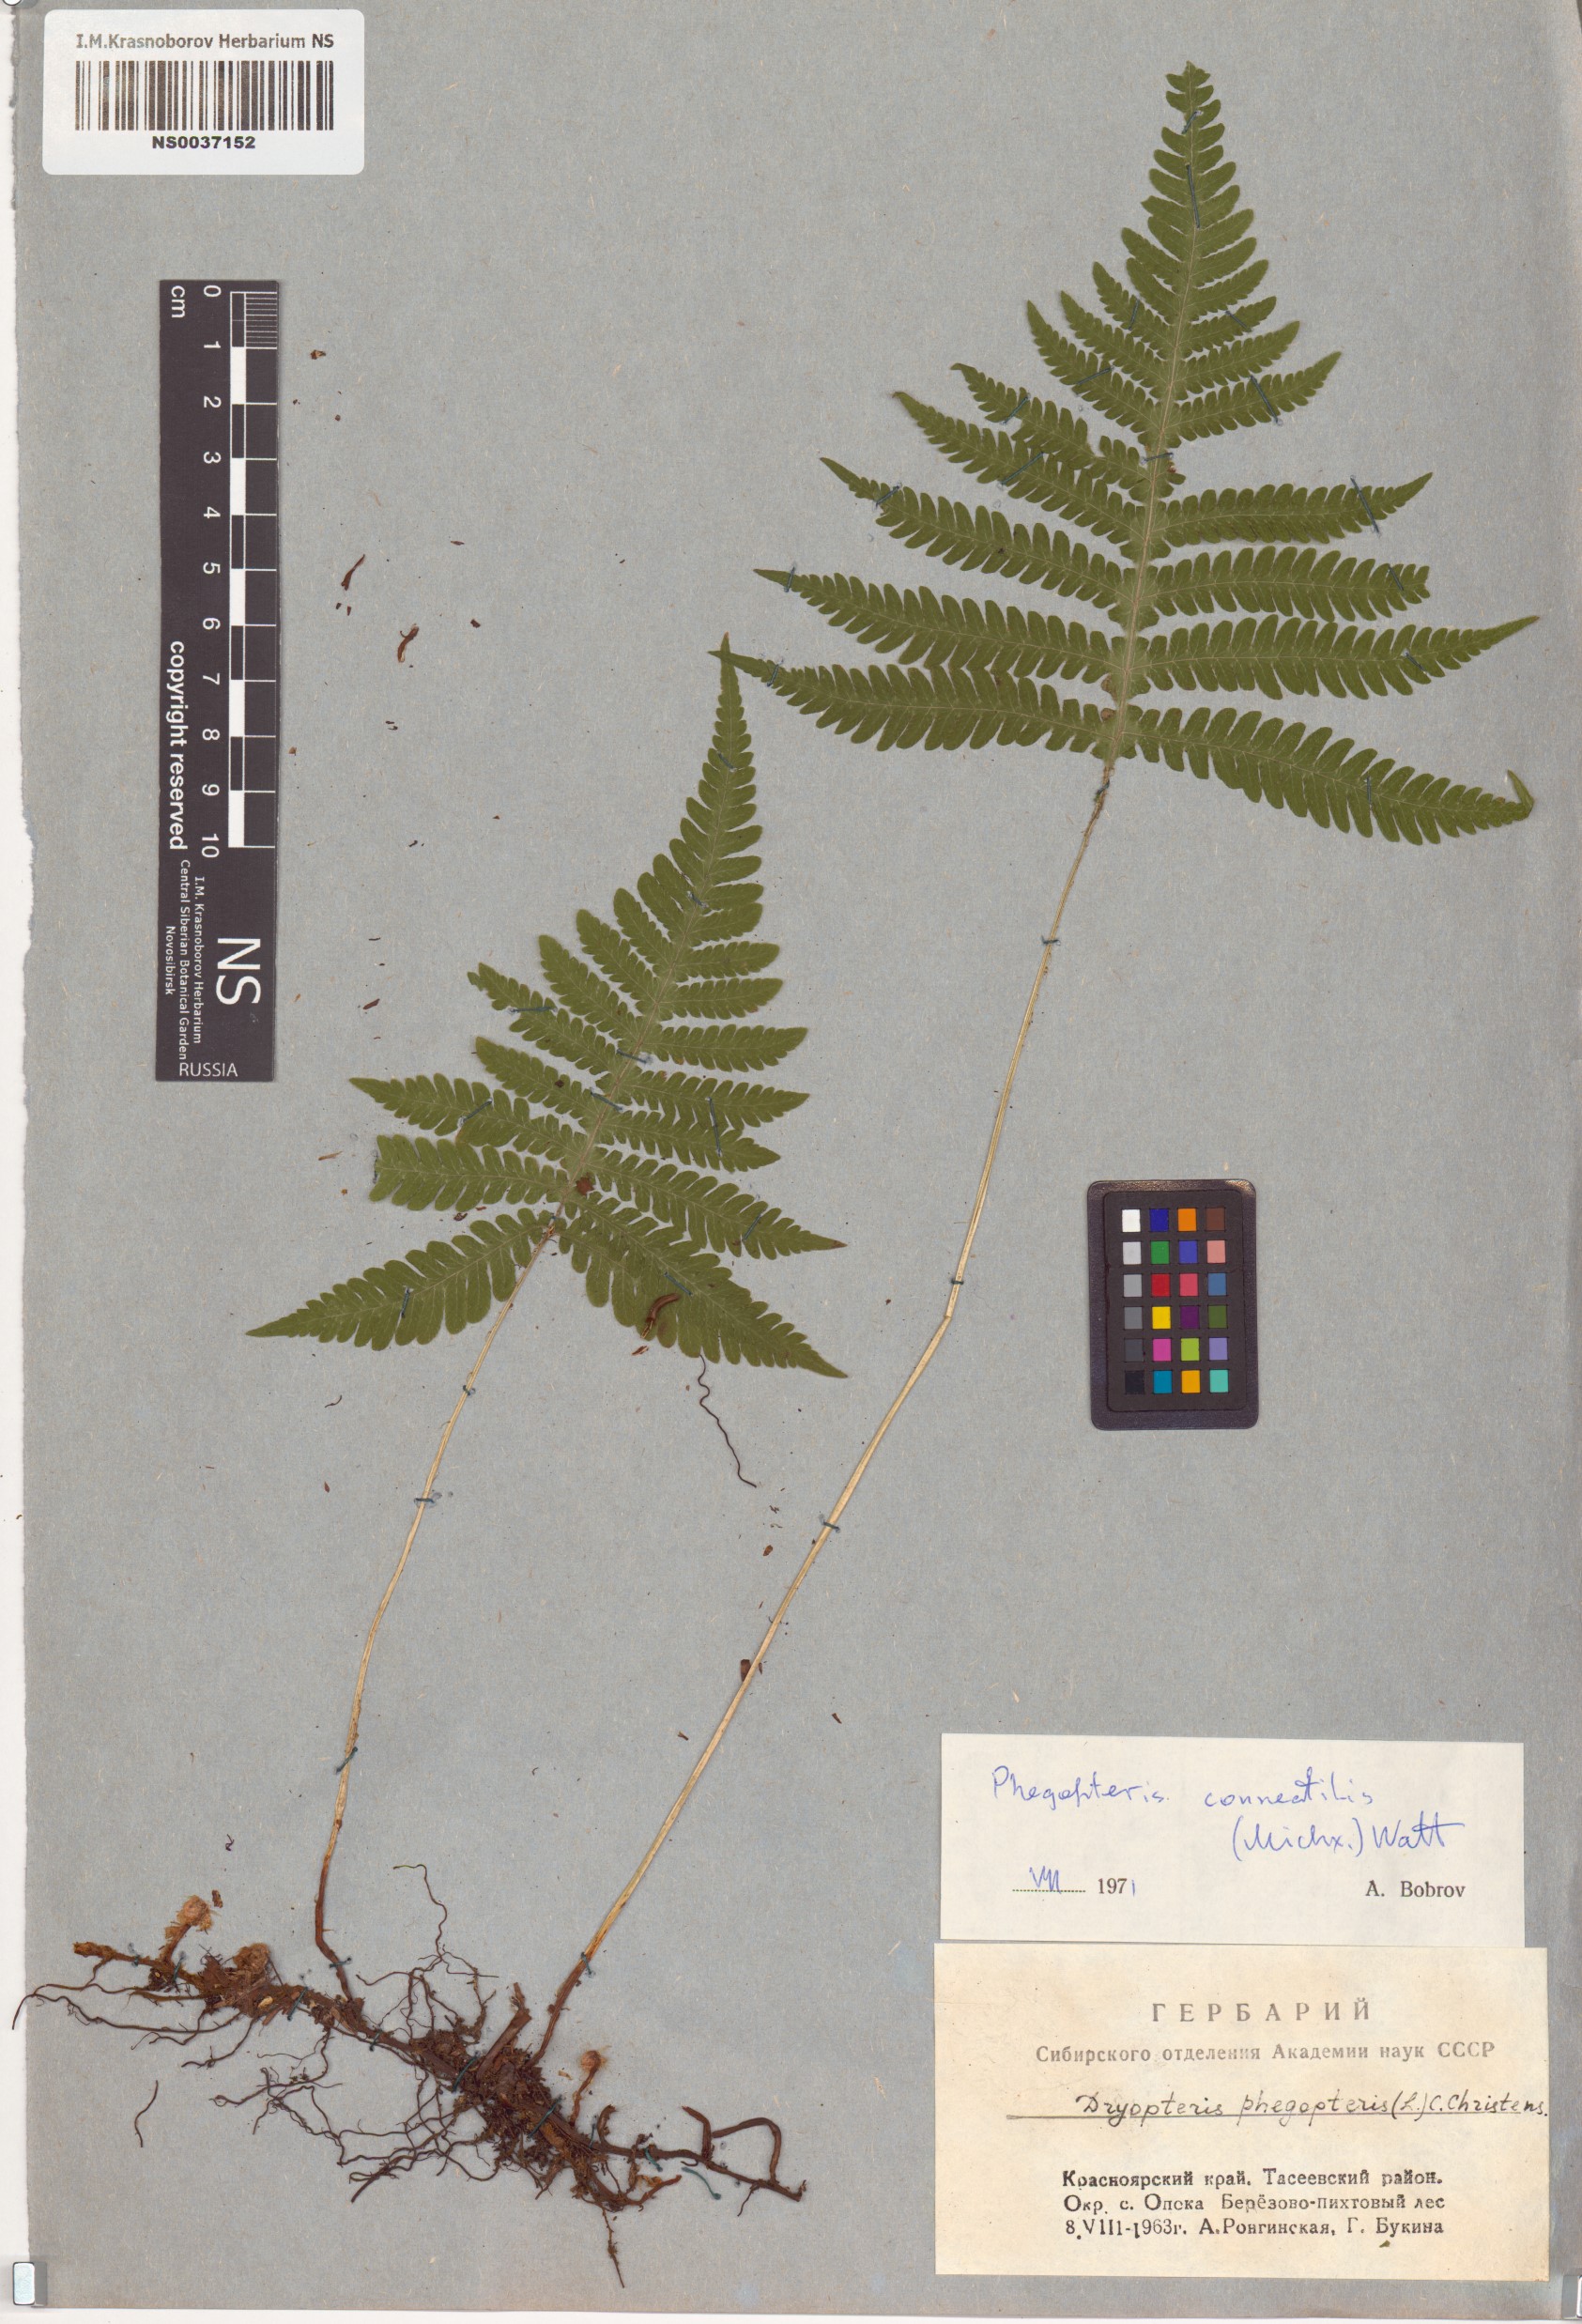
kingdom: Plantae
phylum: Tracheophyta
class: Polypodiopsida
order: Polypodiales
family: Thelypteridaceae
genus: Phegopteris
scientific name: Phegopteris connectilis
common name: Beech fern
